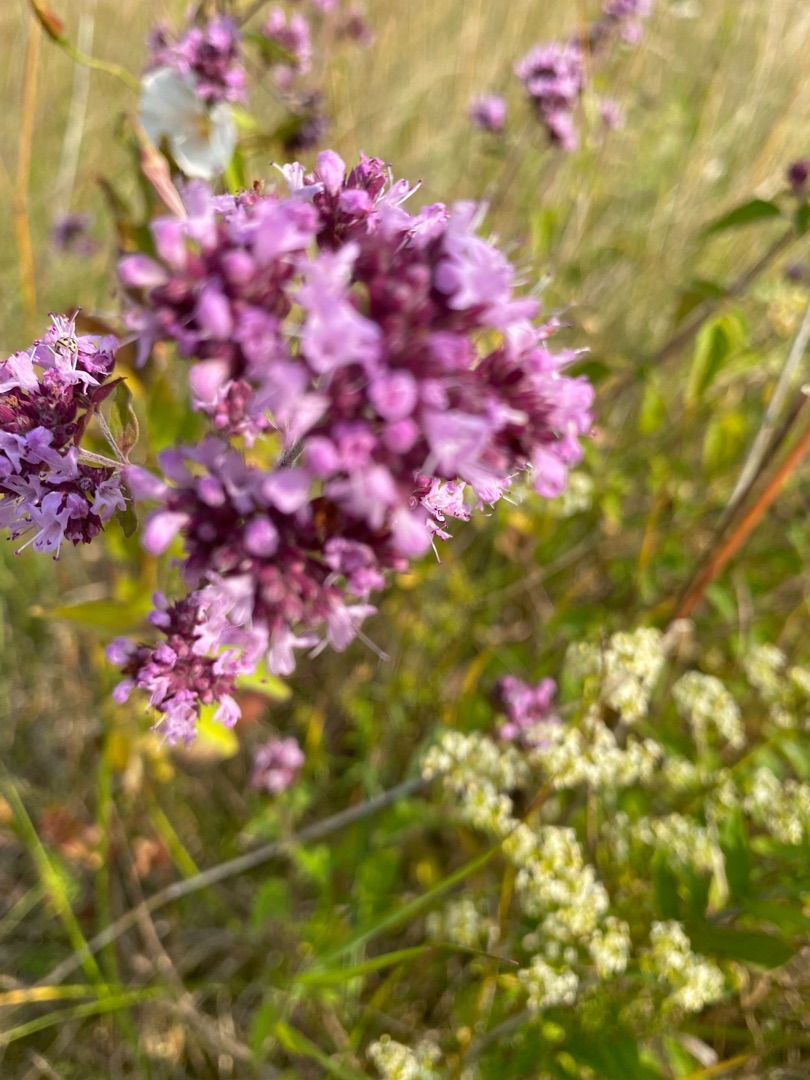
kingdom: Plantae
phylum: Tracheophyta
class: Magnoliopsida
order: Lamiales
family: Lamiaceae
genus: Origanum
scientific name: Origanum vulgare
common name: Merian
